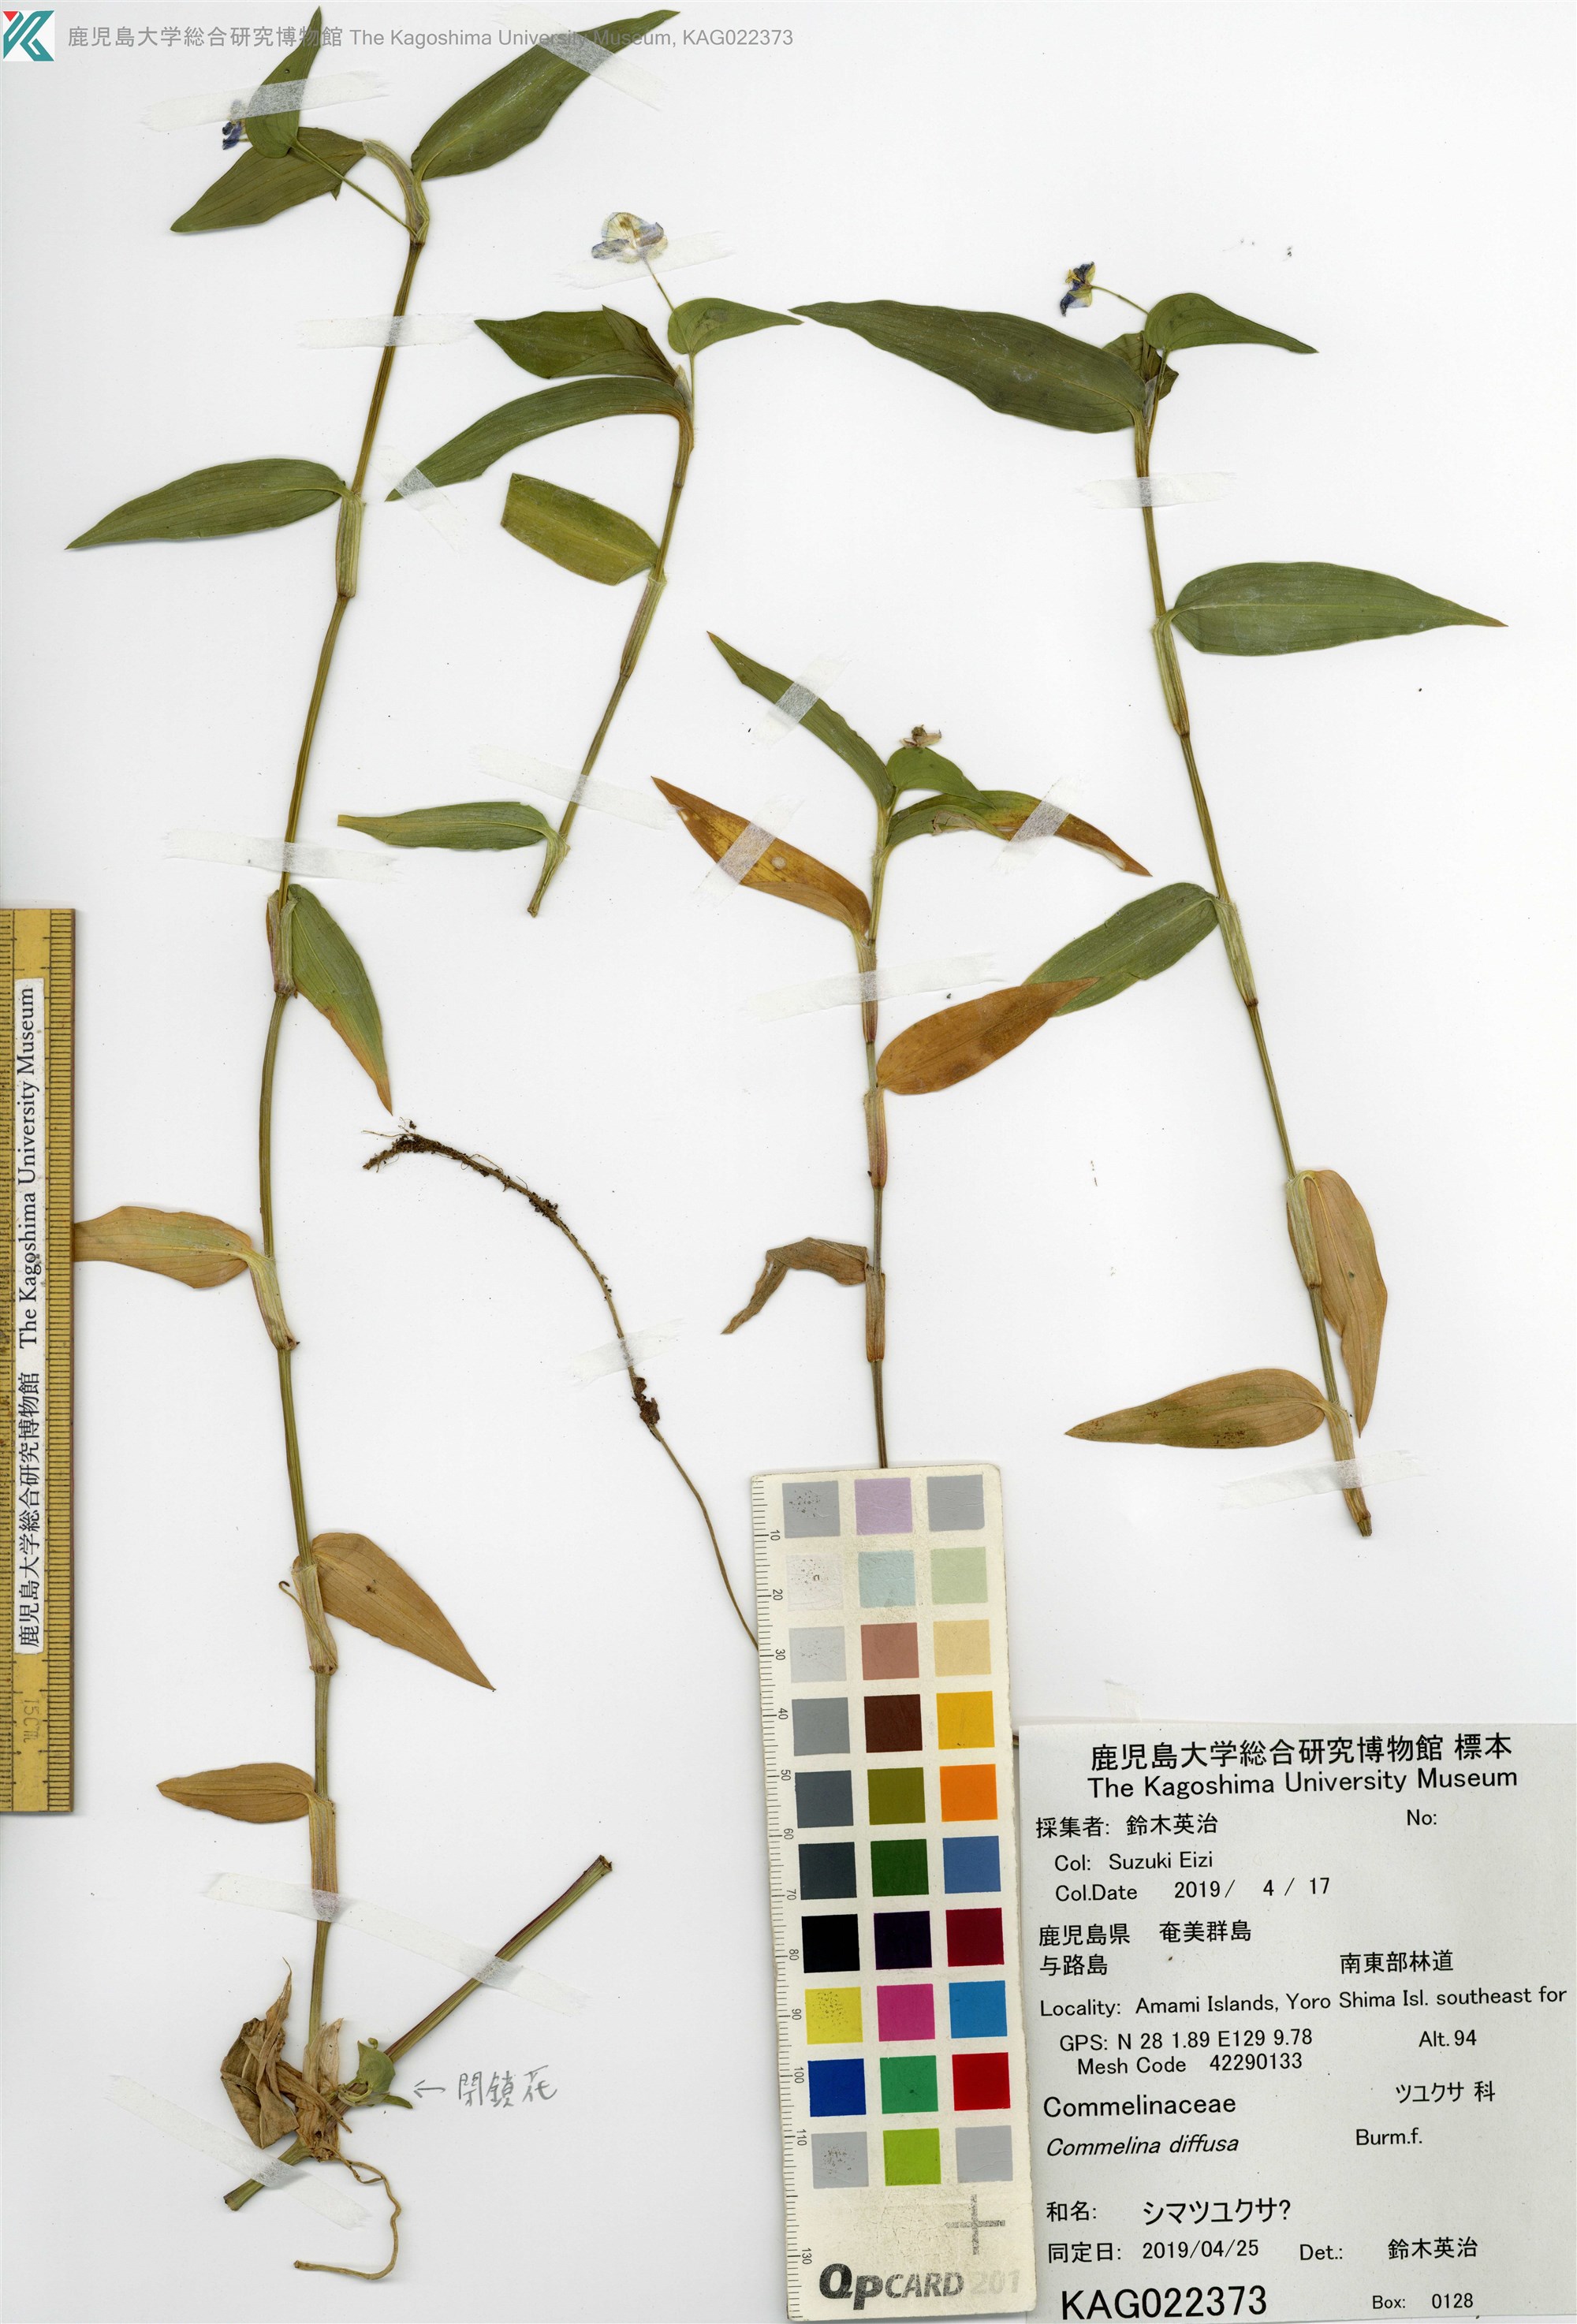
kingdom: Plantae
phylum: Tracheophyta
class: Liliopsida
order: Commelinales
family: Commelinaceae
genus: Commelina
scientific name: Commelina diffusa
